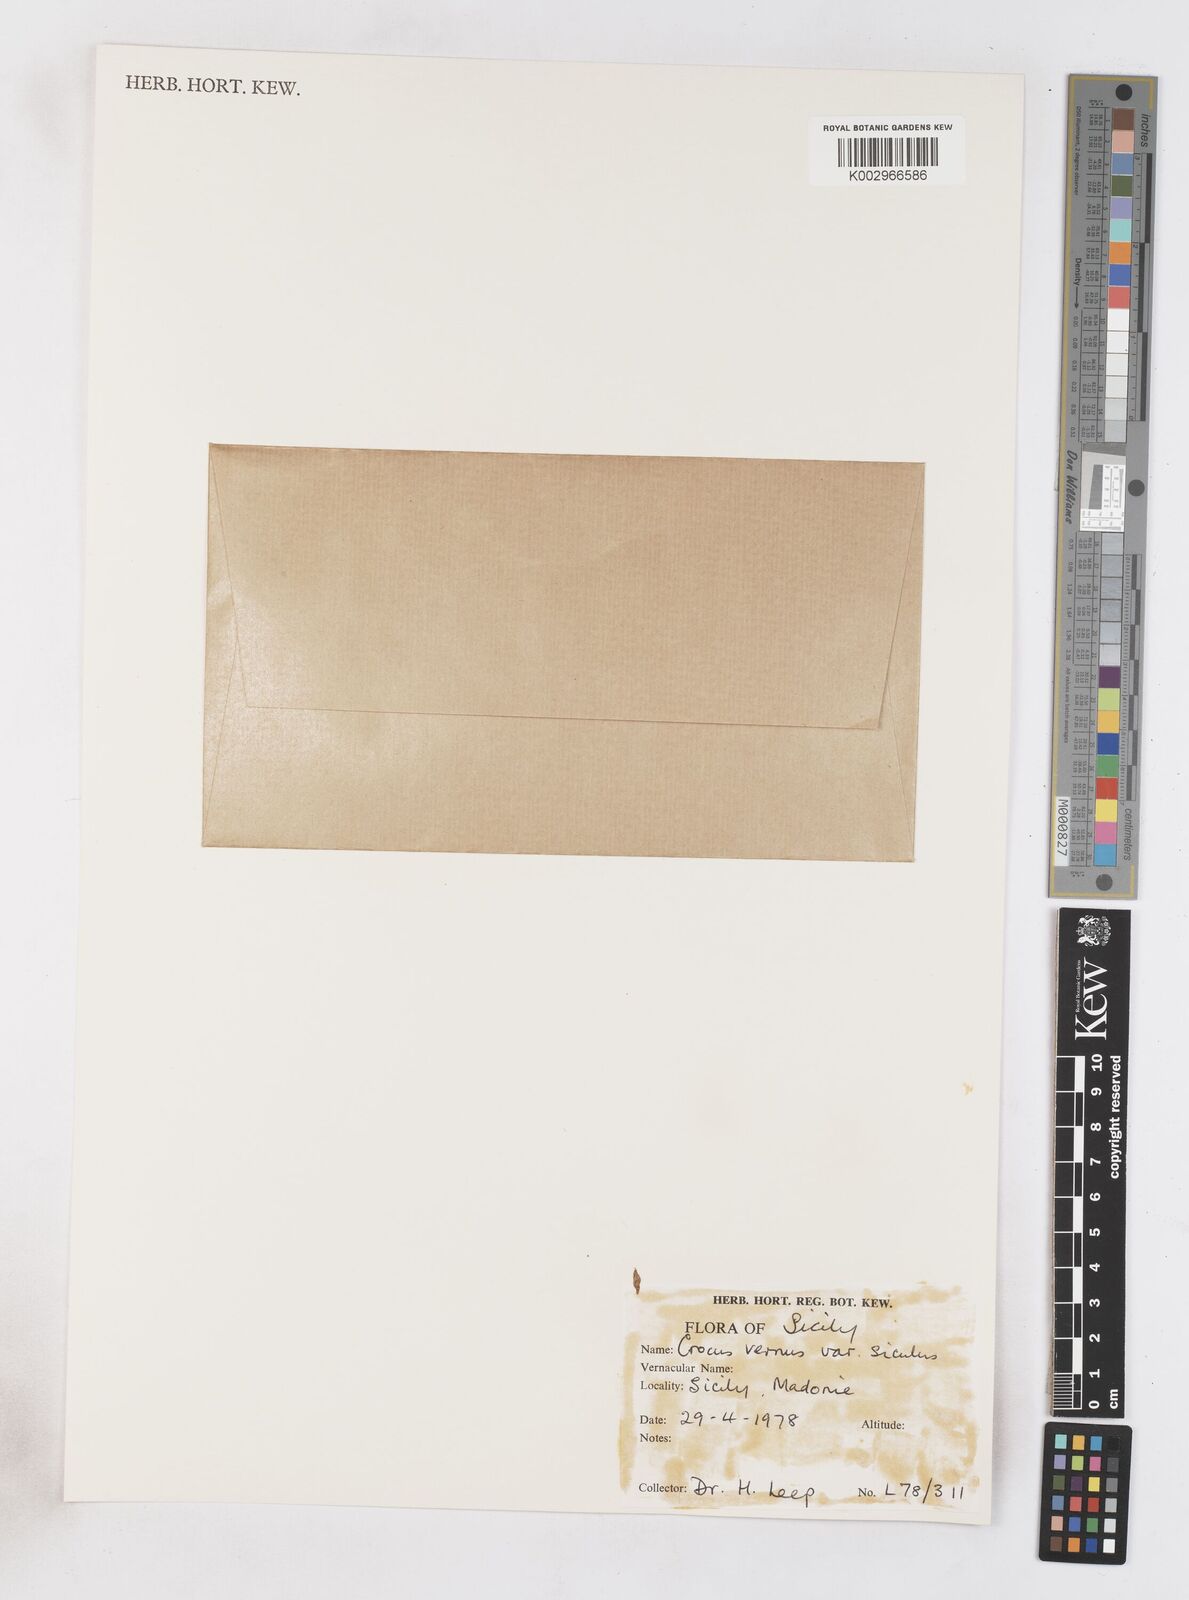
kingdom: Plantae
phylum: Tracheophyta
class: Liliopsida
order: Asparagales
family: Iridaceae
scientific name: Iridaceae
